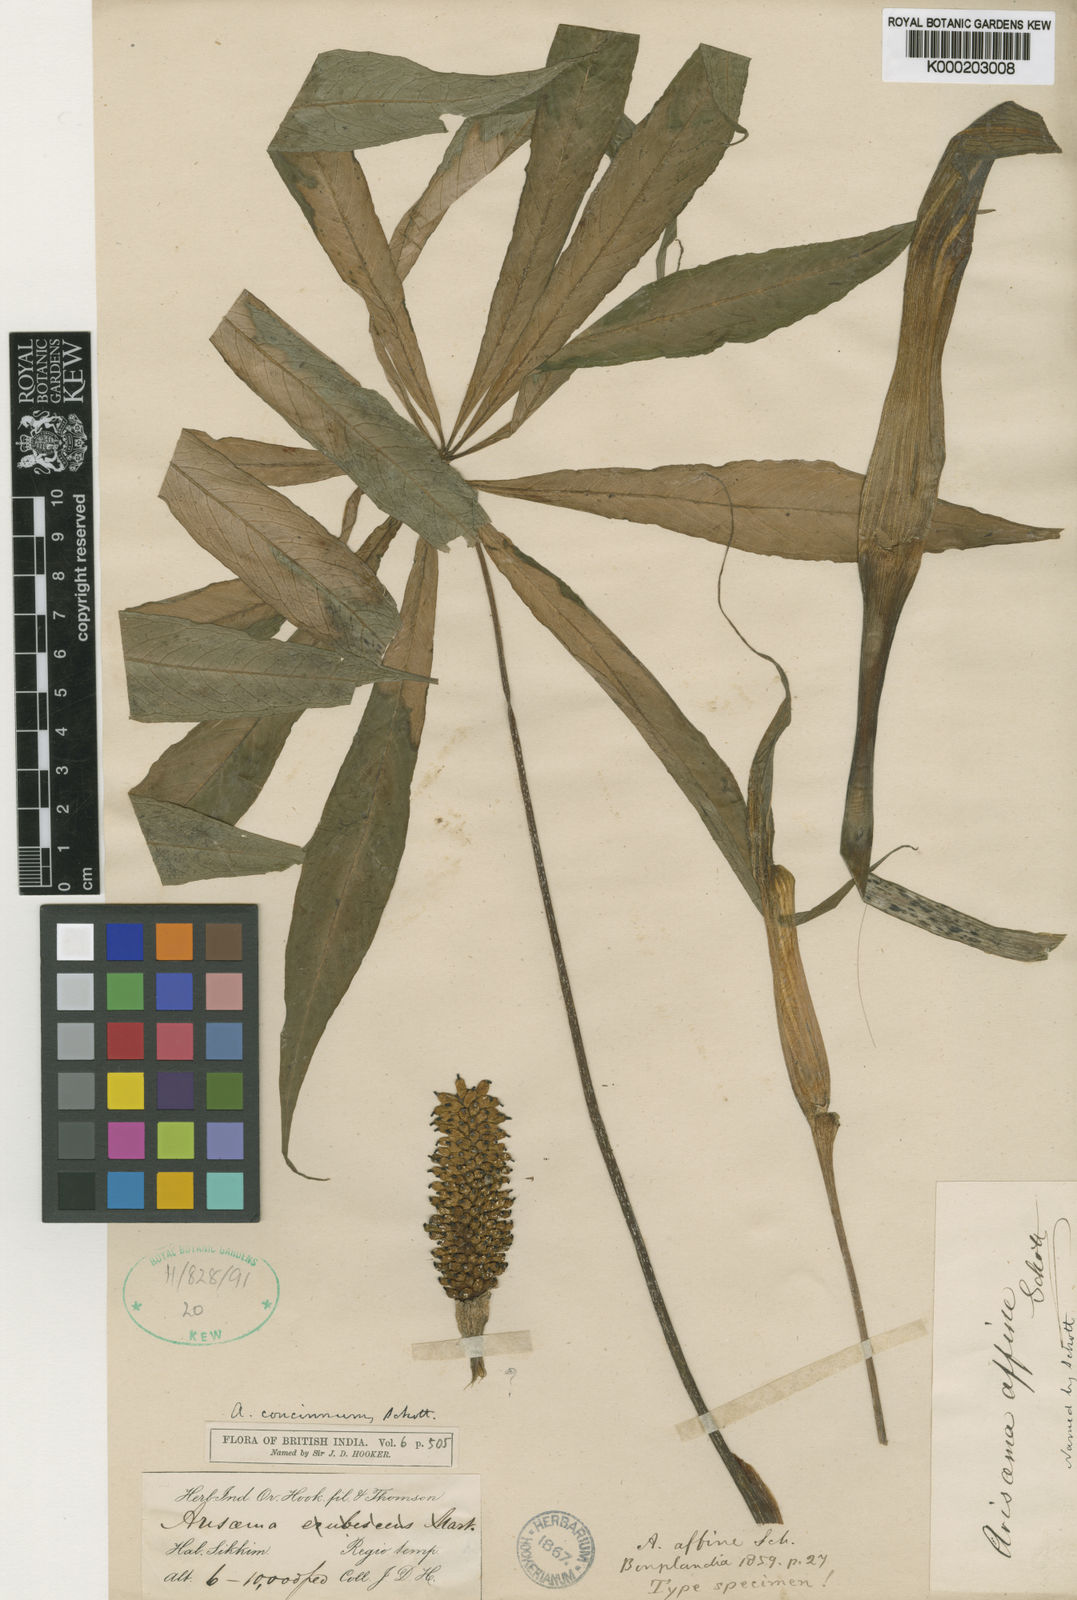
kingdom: Plantae
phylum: Tracheophyta
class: Liliopsida
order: Alismatales
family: Araceae
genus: Arisaema
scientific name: Arisaema concinnum
